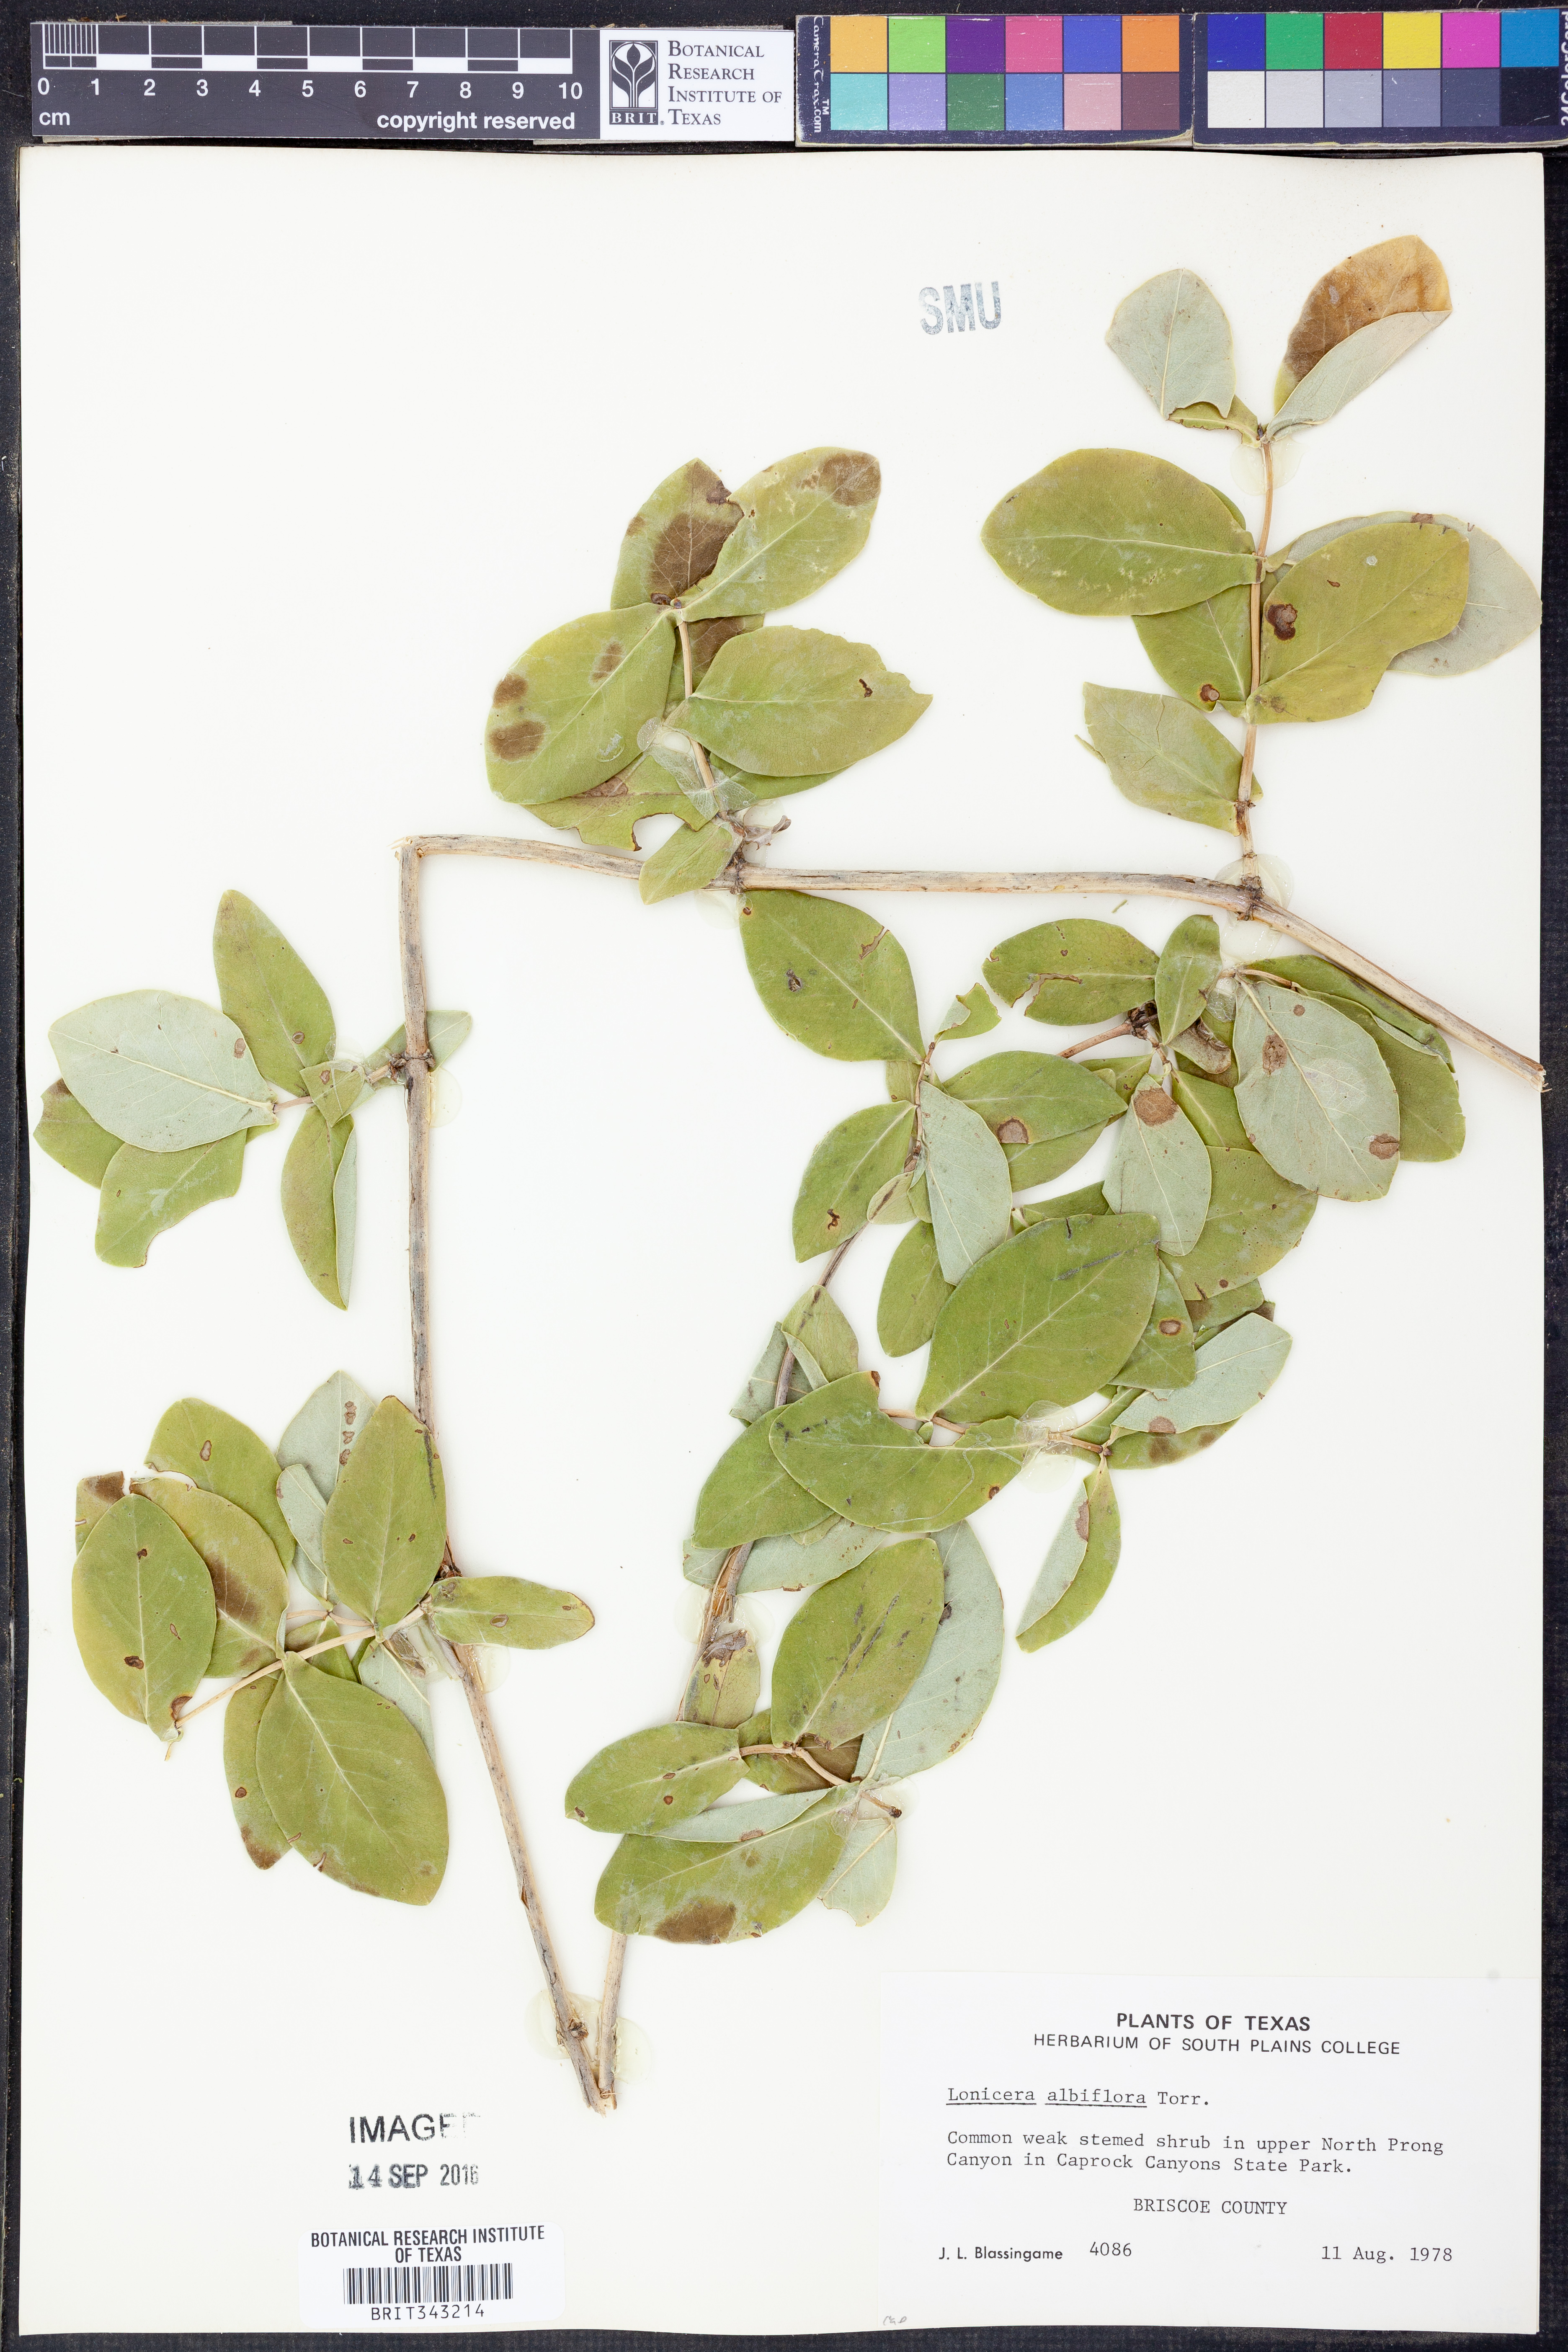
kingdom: Plantae
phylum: Tracheophyta
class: Magnoliopsida
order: Dipsacales
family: Caprifoliaceae
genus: Lonicera
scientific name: Lonicera albiflora
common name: White honeysuckle
